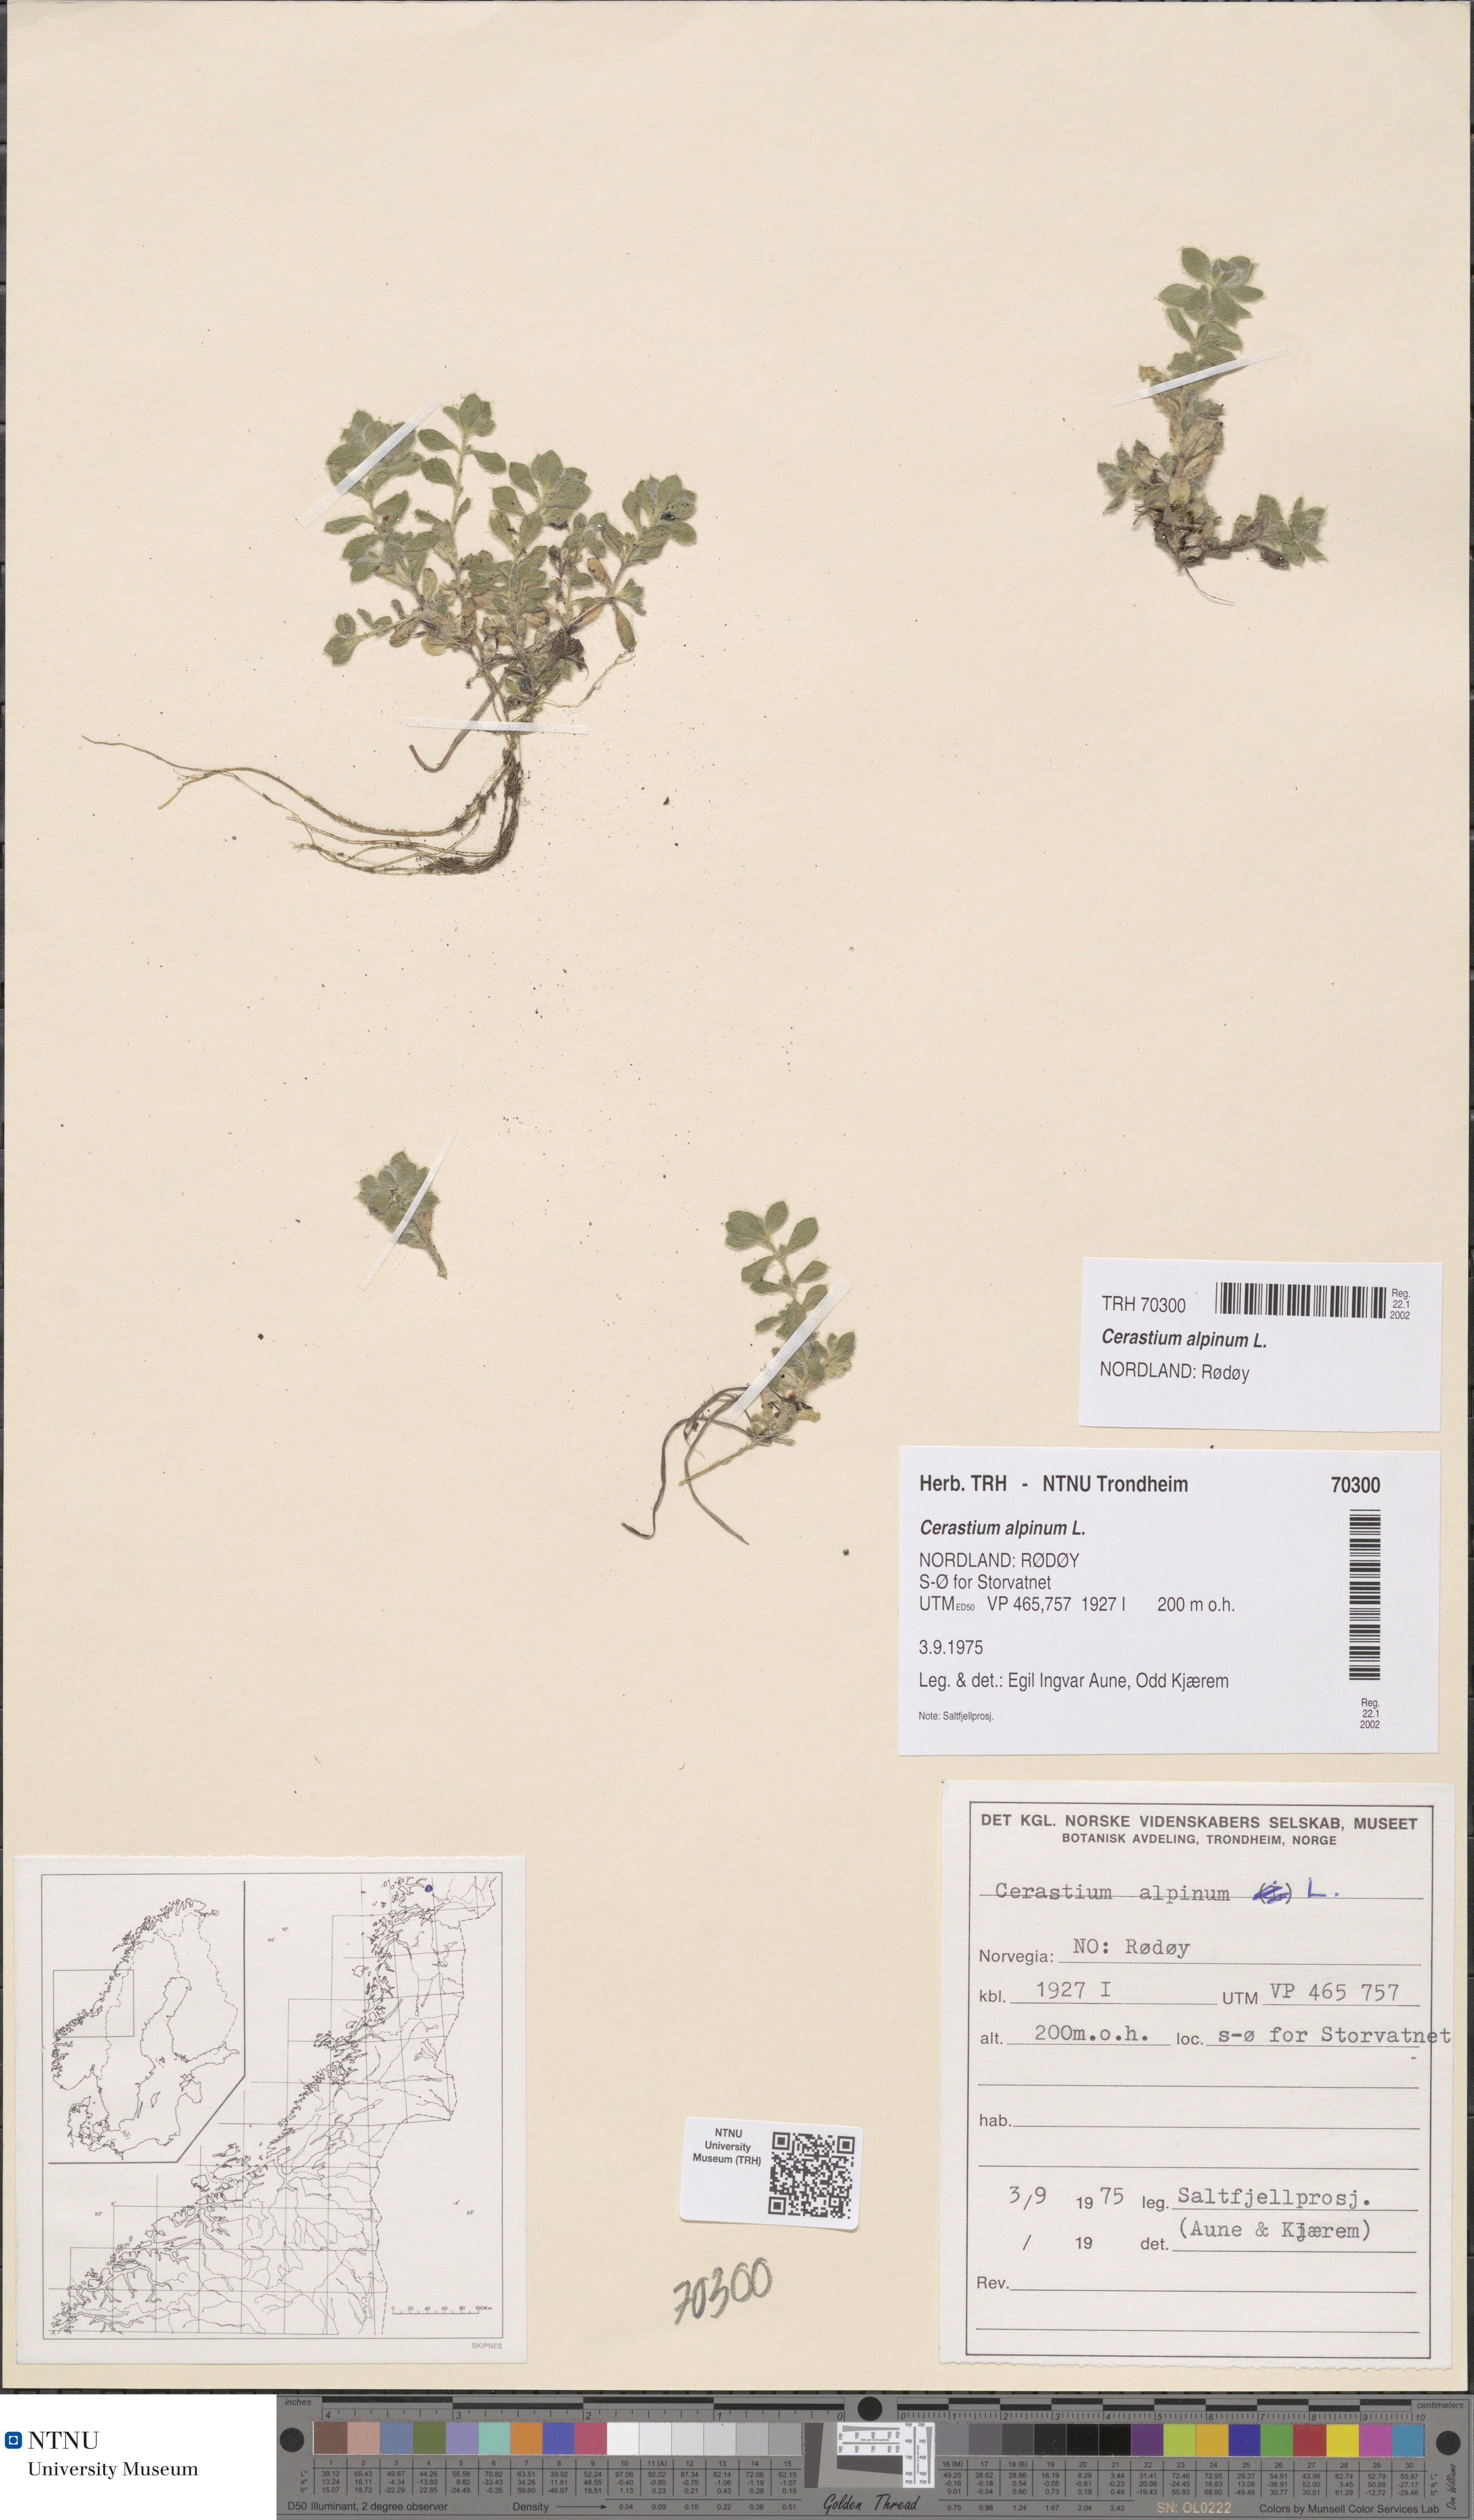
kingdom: Plantae
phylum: Tracheophyta
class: Magnoliopsida
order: Caryophyllales
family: Caryophyllaceae
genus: Cerastium
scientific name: Cerastium alpinum
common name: Alpine mouse-ear
